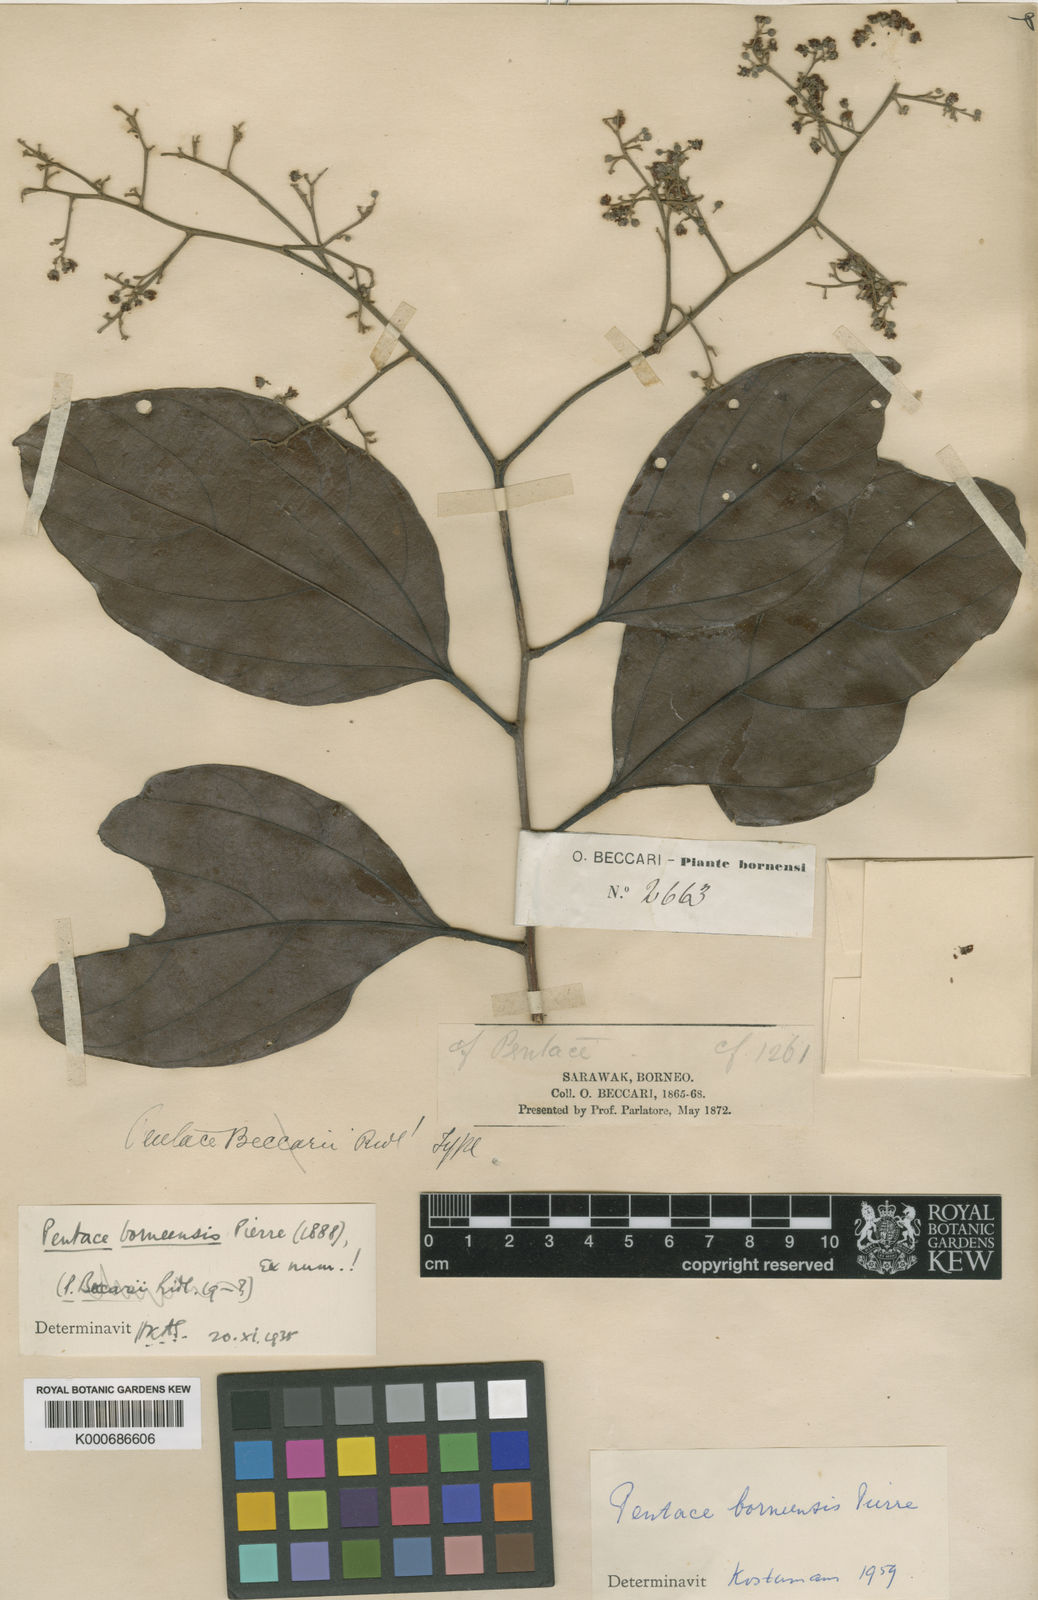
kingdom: Plantae
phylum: Tracheophyta
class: Magnoliopsida
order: Malvales
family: Malvaceae
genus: Pentace
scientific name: Pentace borneensis
